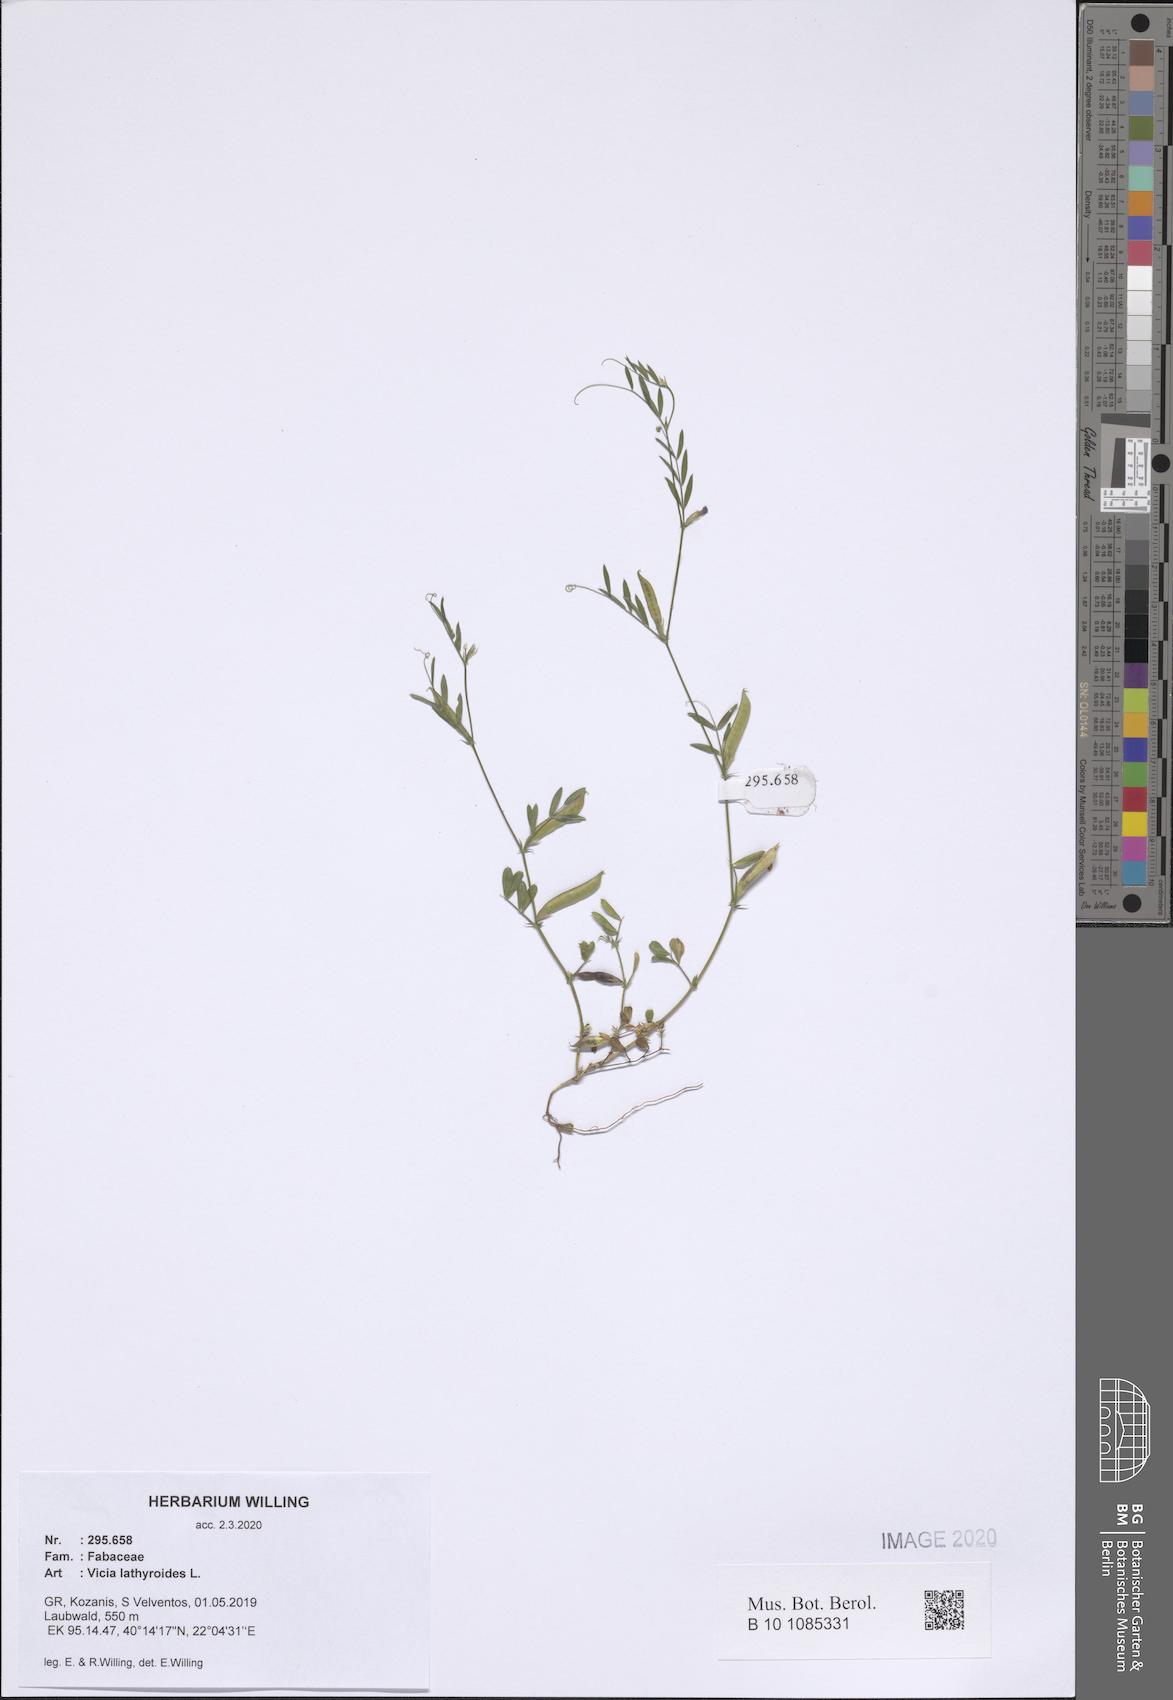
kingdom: Plantae
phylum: Tracheophyta
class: Magnoliopsida
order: Fabales
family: Fabaceae
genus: Vicia
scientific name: Vicia lathyroides
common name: Spring vetch
